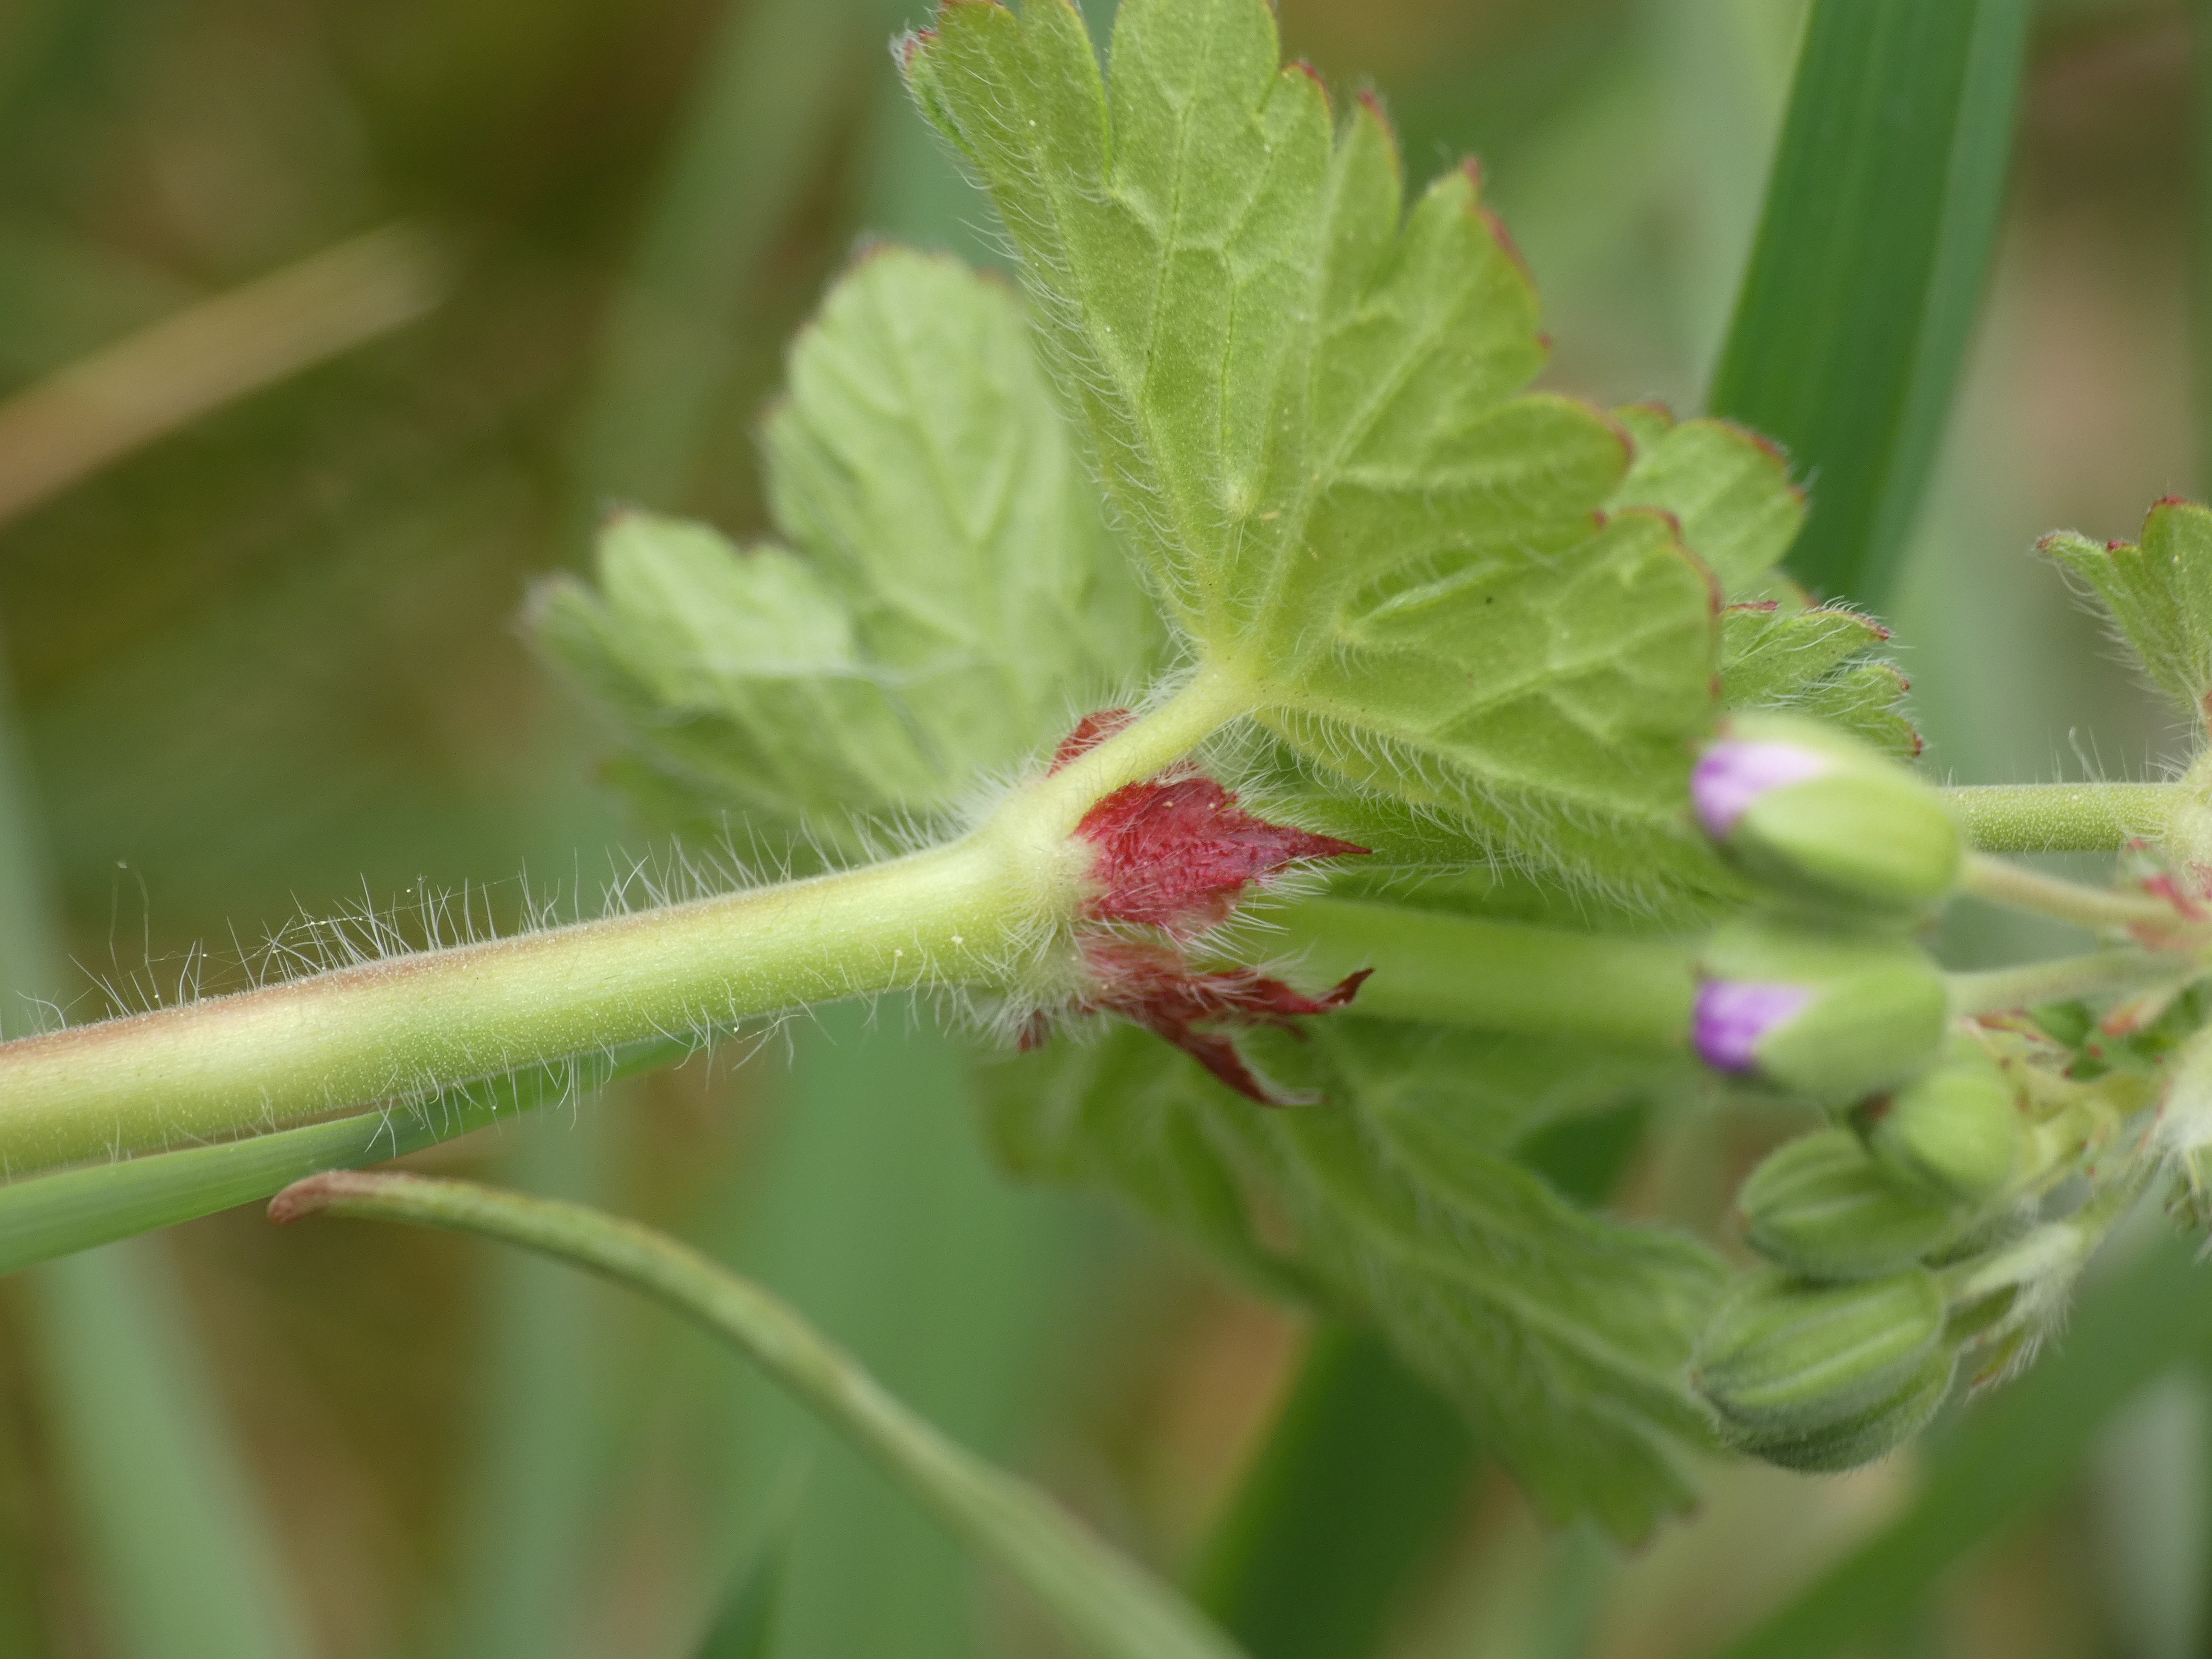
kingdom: Plantae
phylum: Tracheophyta
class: Magnoliopsida
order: Geraniales
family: Geraniaceae
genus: Geranium
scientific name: Geranium pyrenaicum
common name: Pyrenæisk storkenæb
